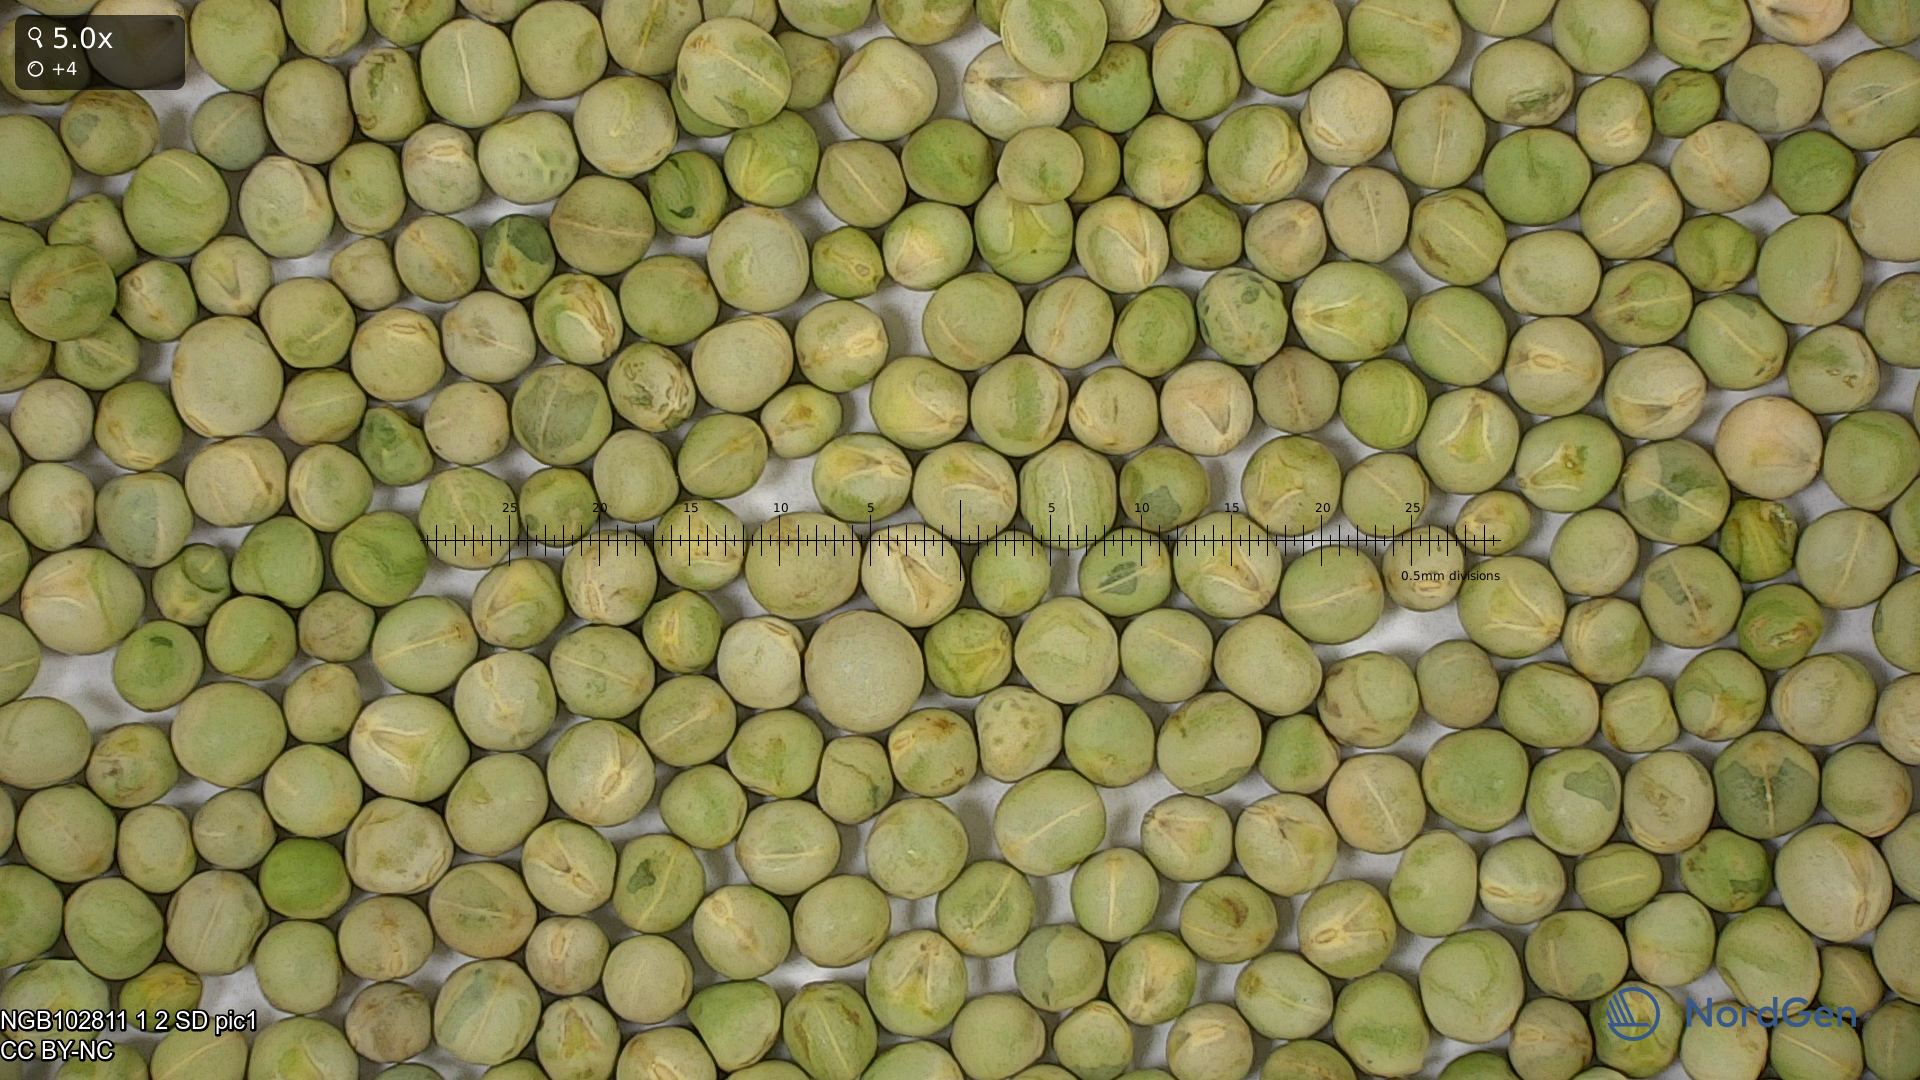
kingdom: Plantae
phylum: Tracheophyta
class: Magnoliopsida
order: Fabales
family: Fabaceae
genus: Lathyrus
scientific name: Lathyrus oleraceus
